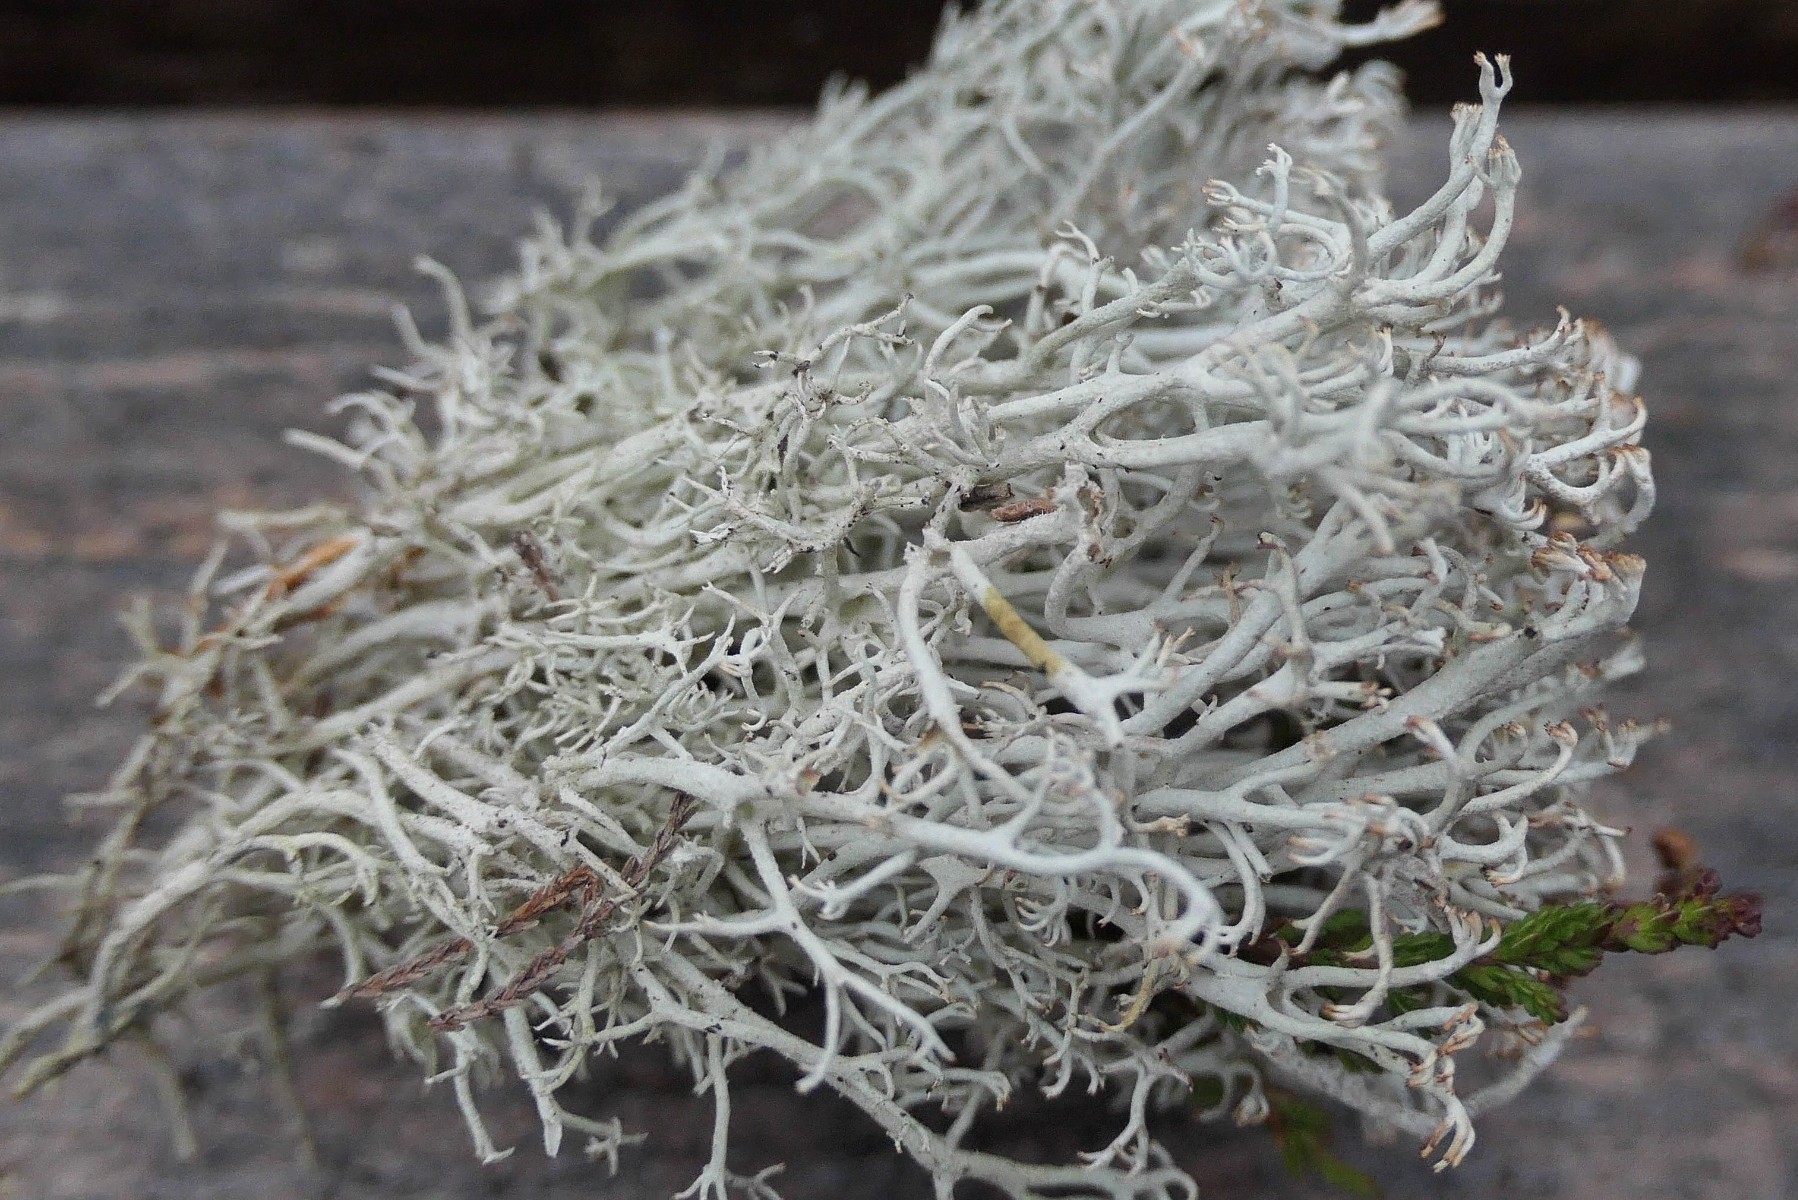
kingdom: Fungi
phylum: Ascomycota
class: Lecanoromycetes
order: Lecanorales
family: Cladoniaceae
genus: Cladonia
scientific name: Cladonia rangiferina
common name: askegrå rensdyrlav
